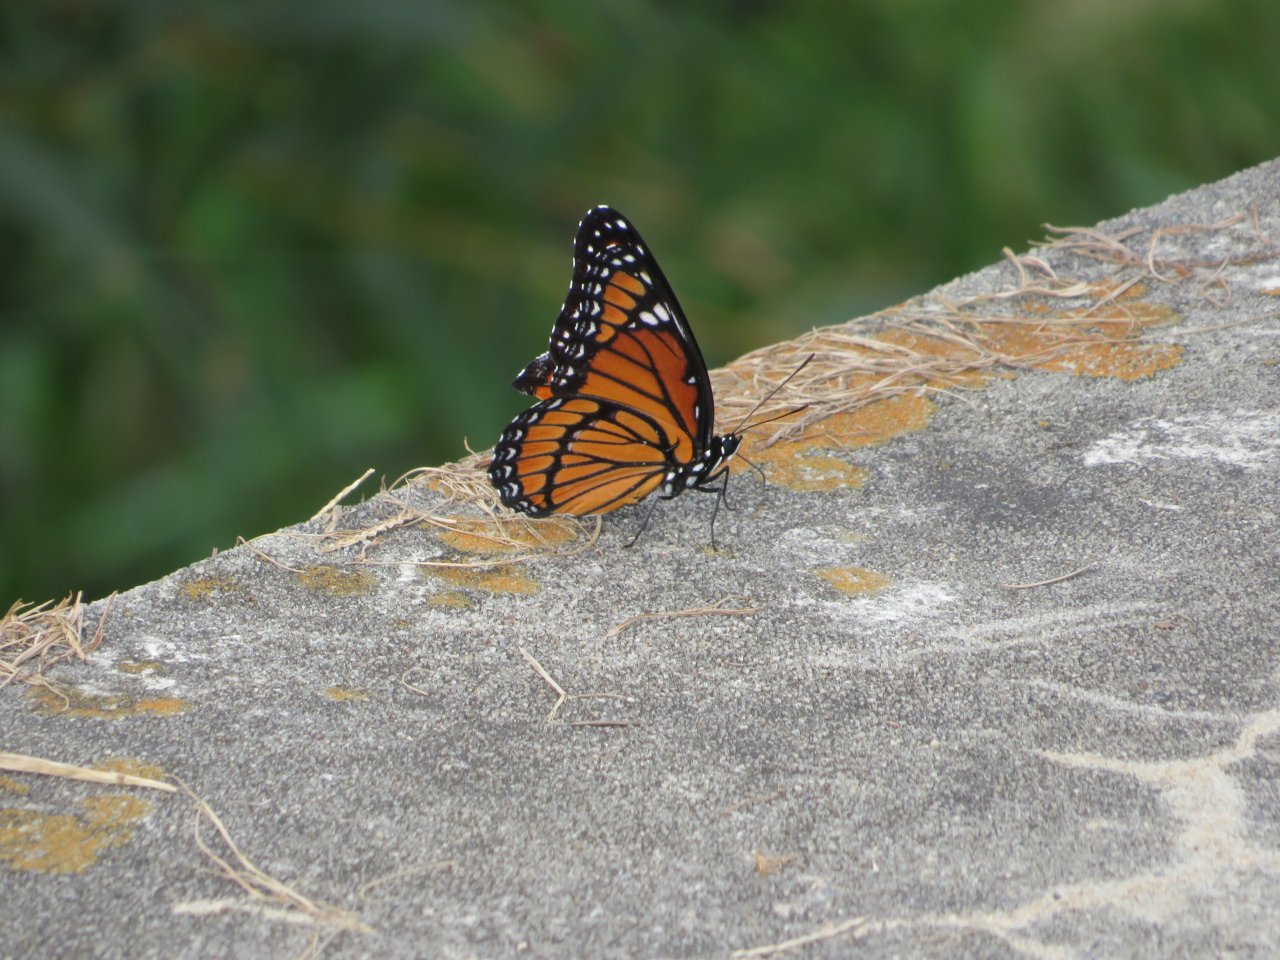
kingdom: Animalia
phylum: Arthropoda
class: Insecta
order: Lepidoptera
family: Nymphalidae
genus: Limenitis
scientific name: Limenitis archippus
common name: Viceroy
